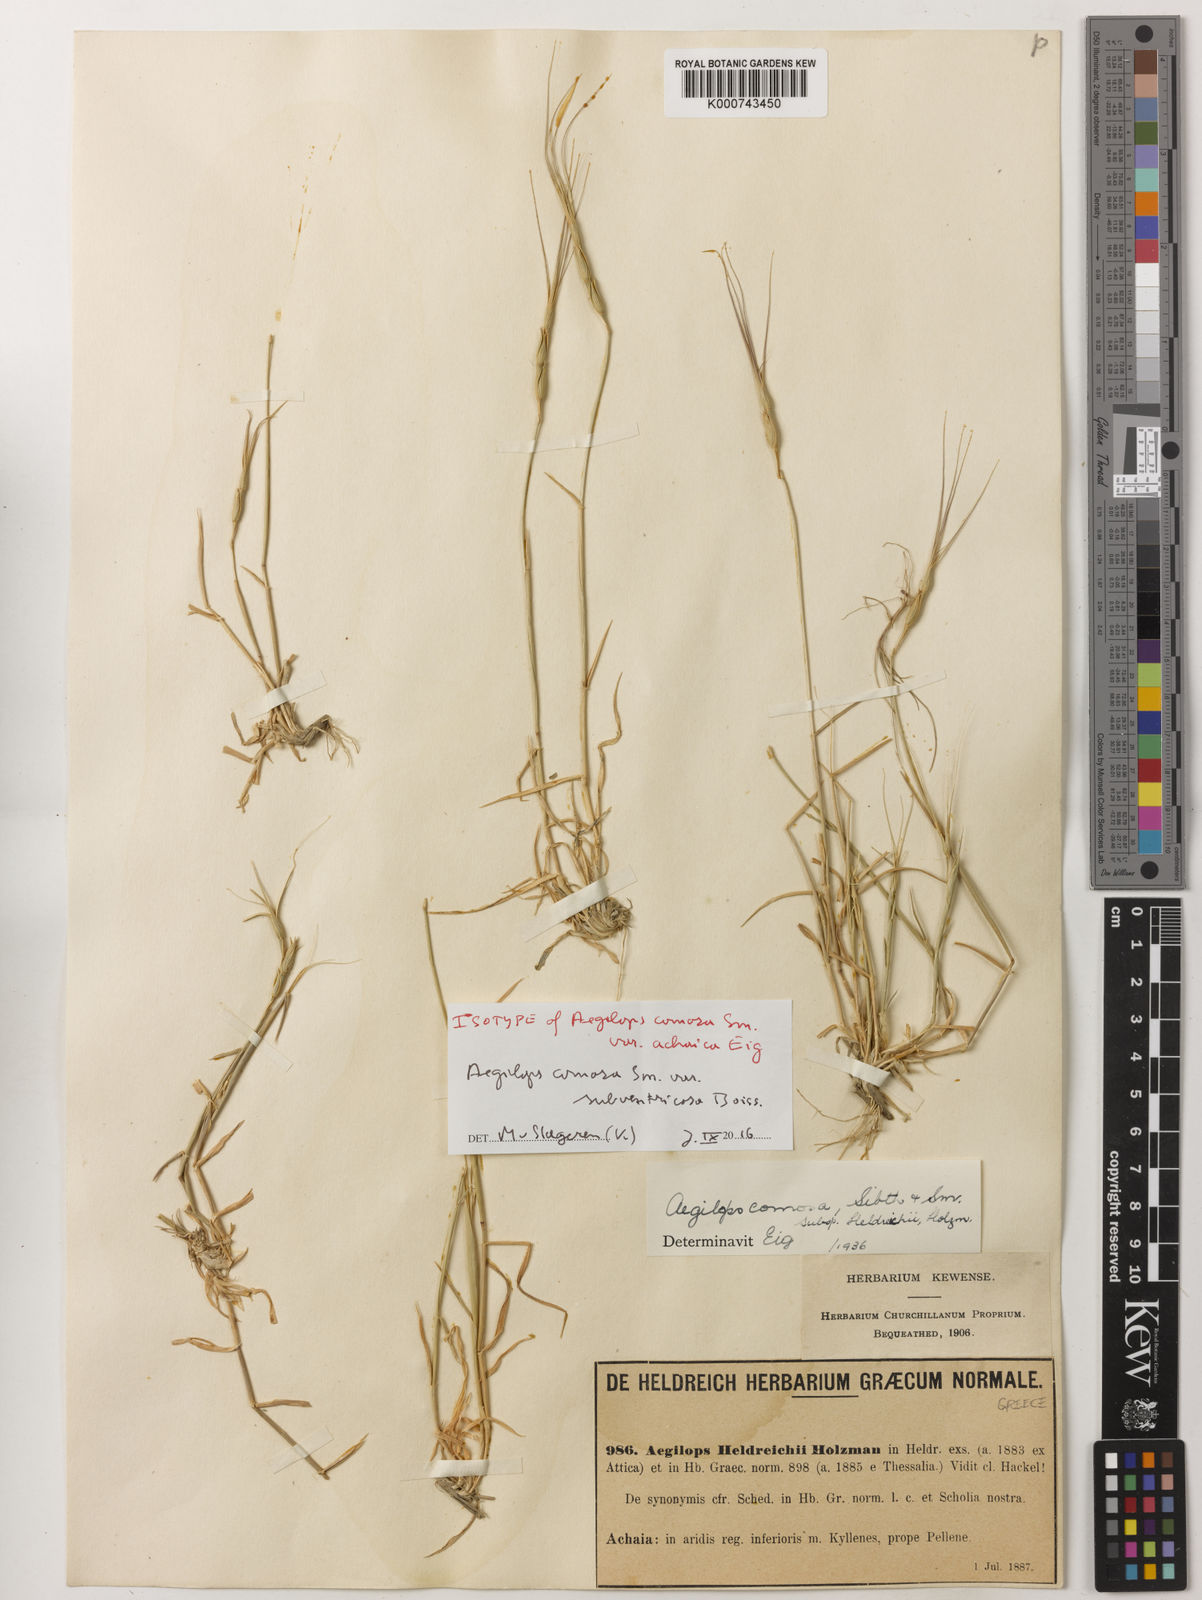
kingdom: Plantae
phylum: Tracheophyta
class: Liliopsida
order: Poales
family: Poaceae
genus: Aegilops
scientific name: Aegilops comosa
